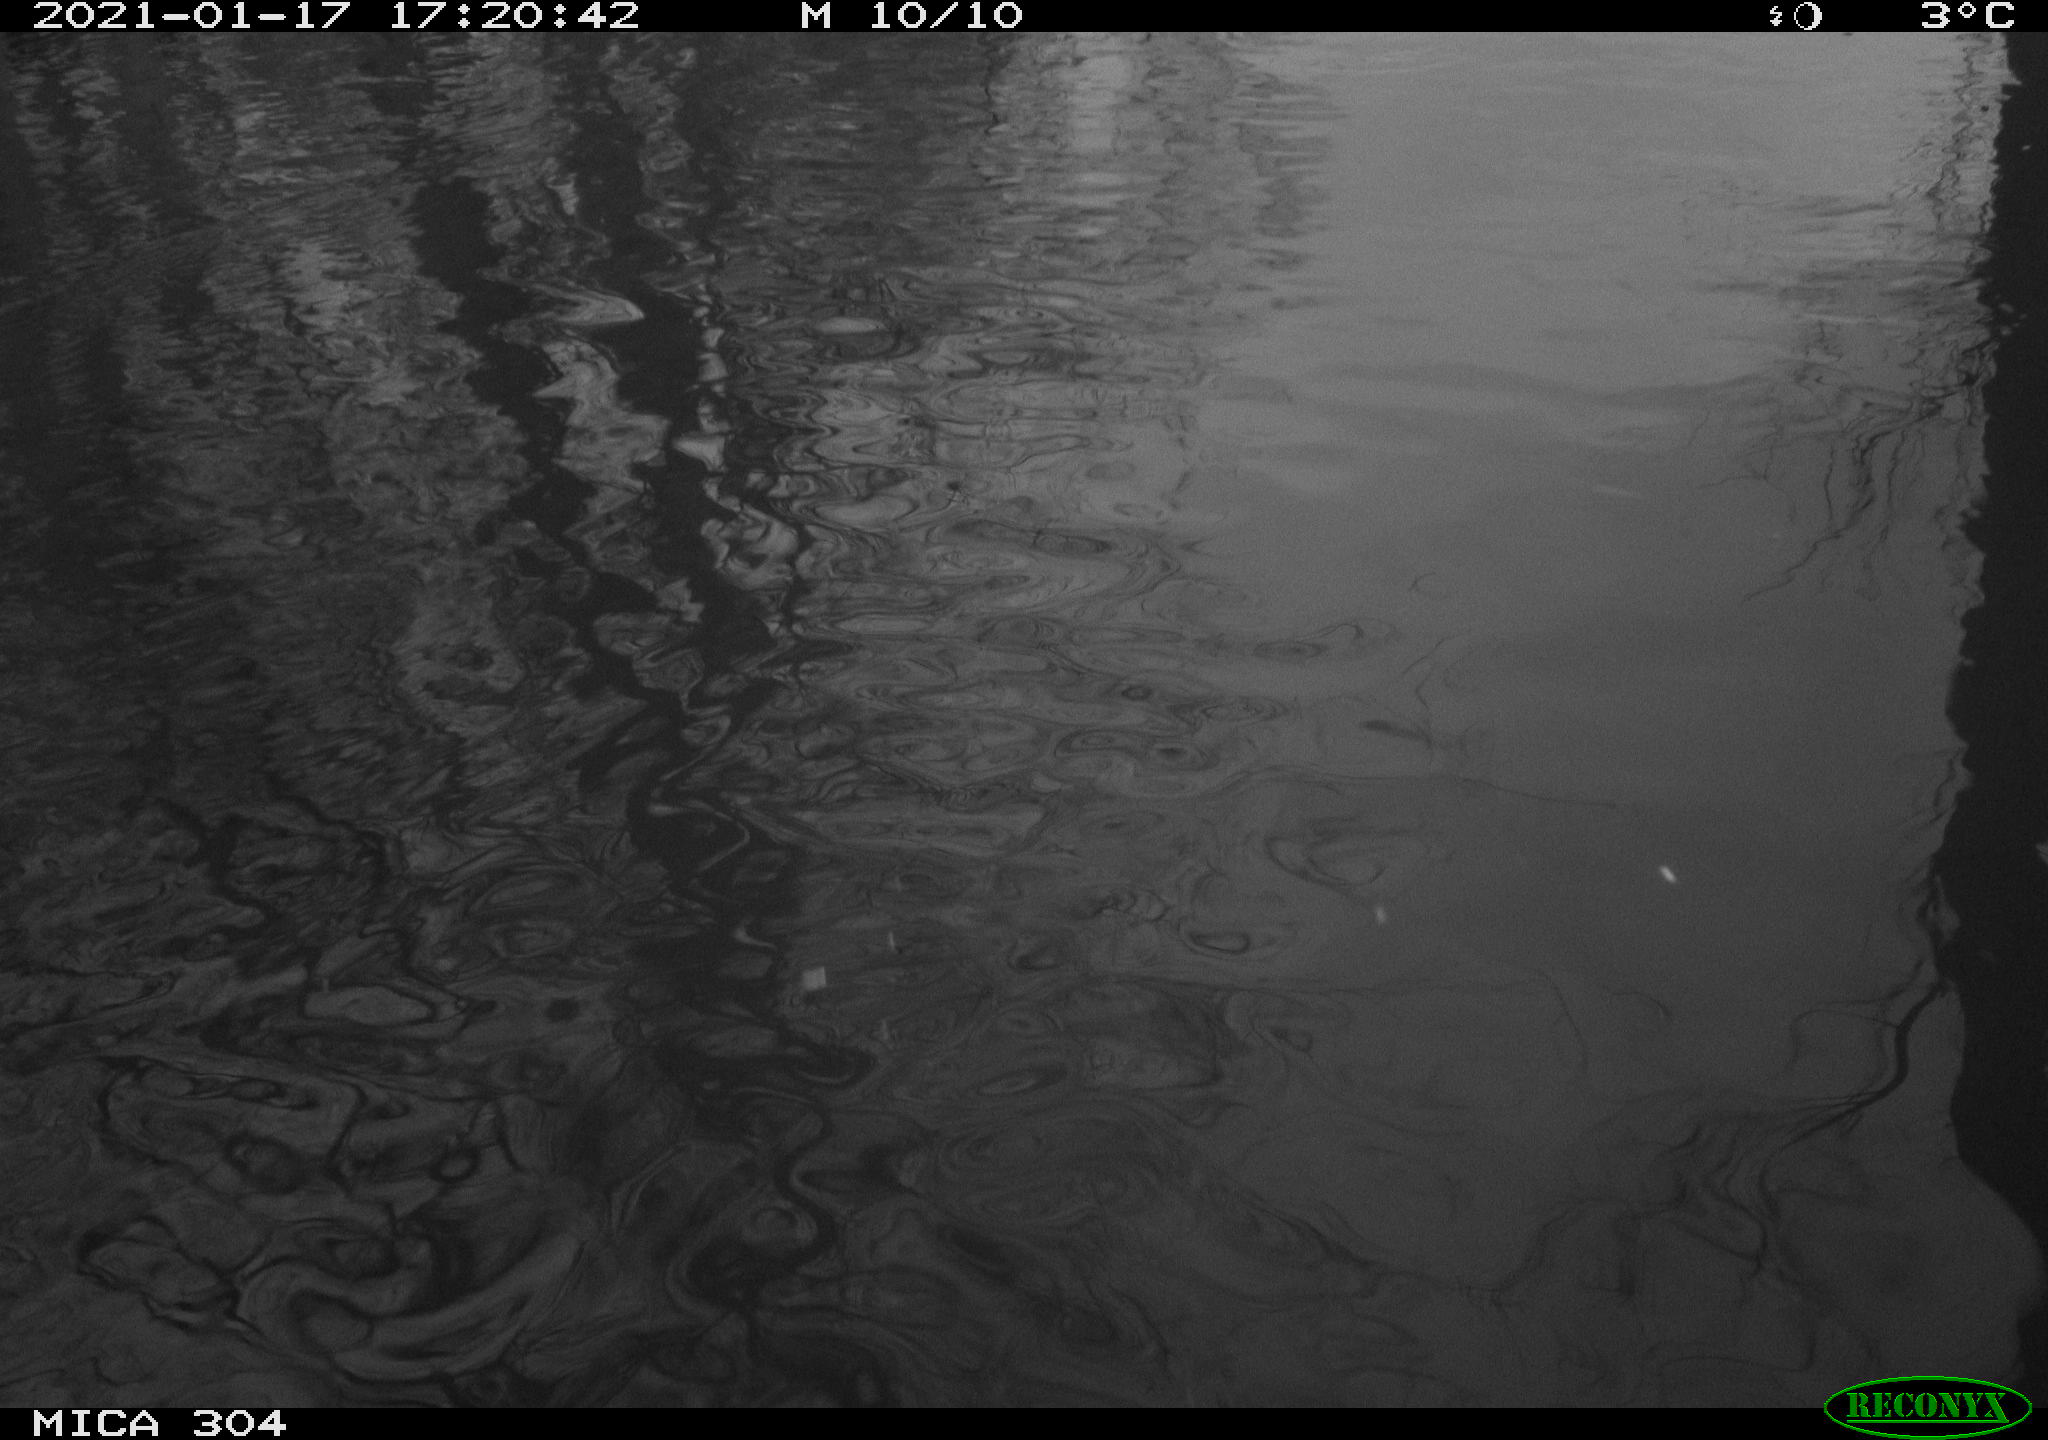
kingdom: Animalia
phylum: Chordata
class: Aves
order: Gruiformes
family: Rallidae
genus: Fulica
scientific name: Fulica atra
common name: Eurasian coot
